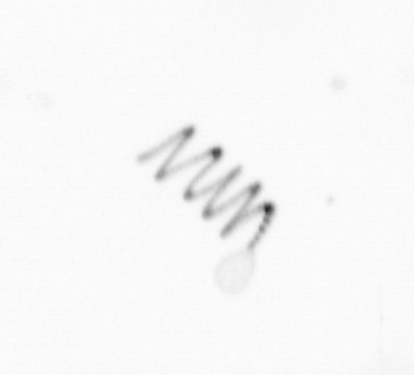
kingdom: Chromista
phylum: Ochrophyta
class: Bacillariophyceae
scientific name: Bacillariophyceae
